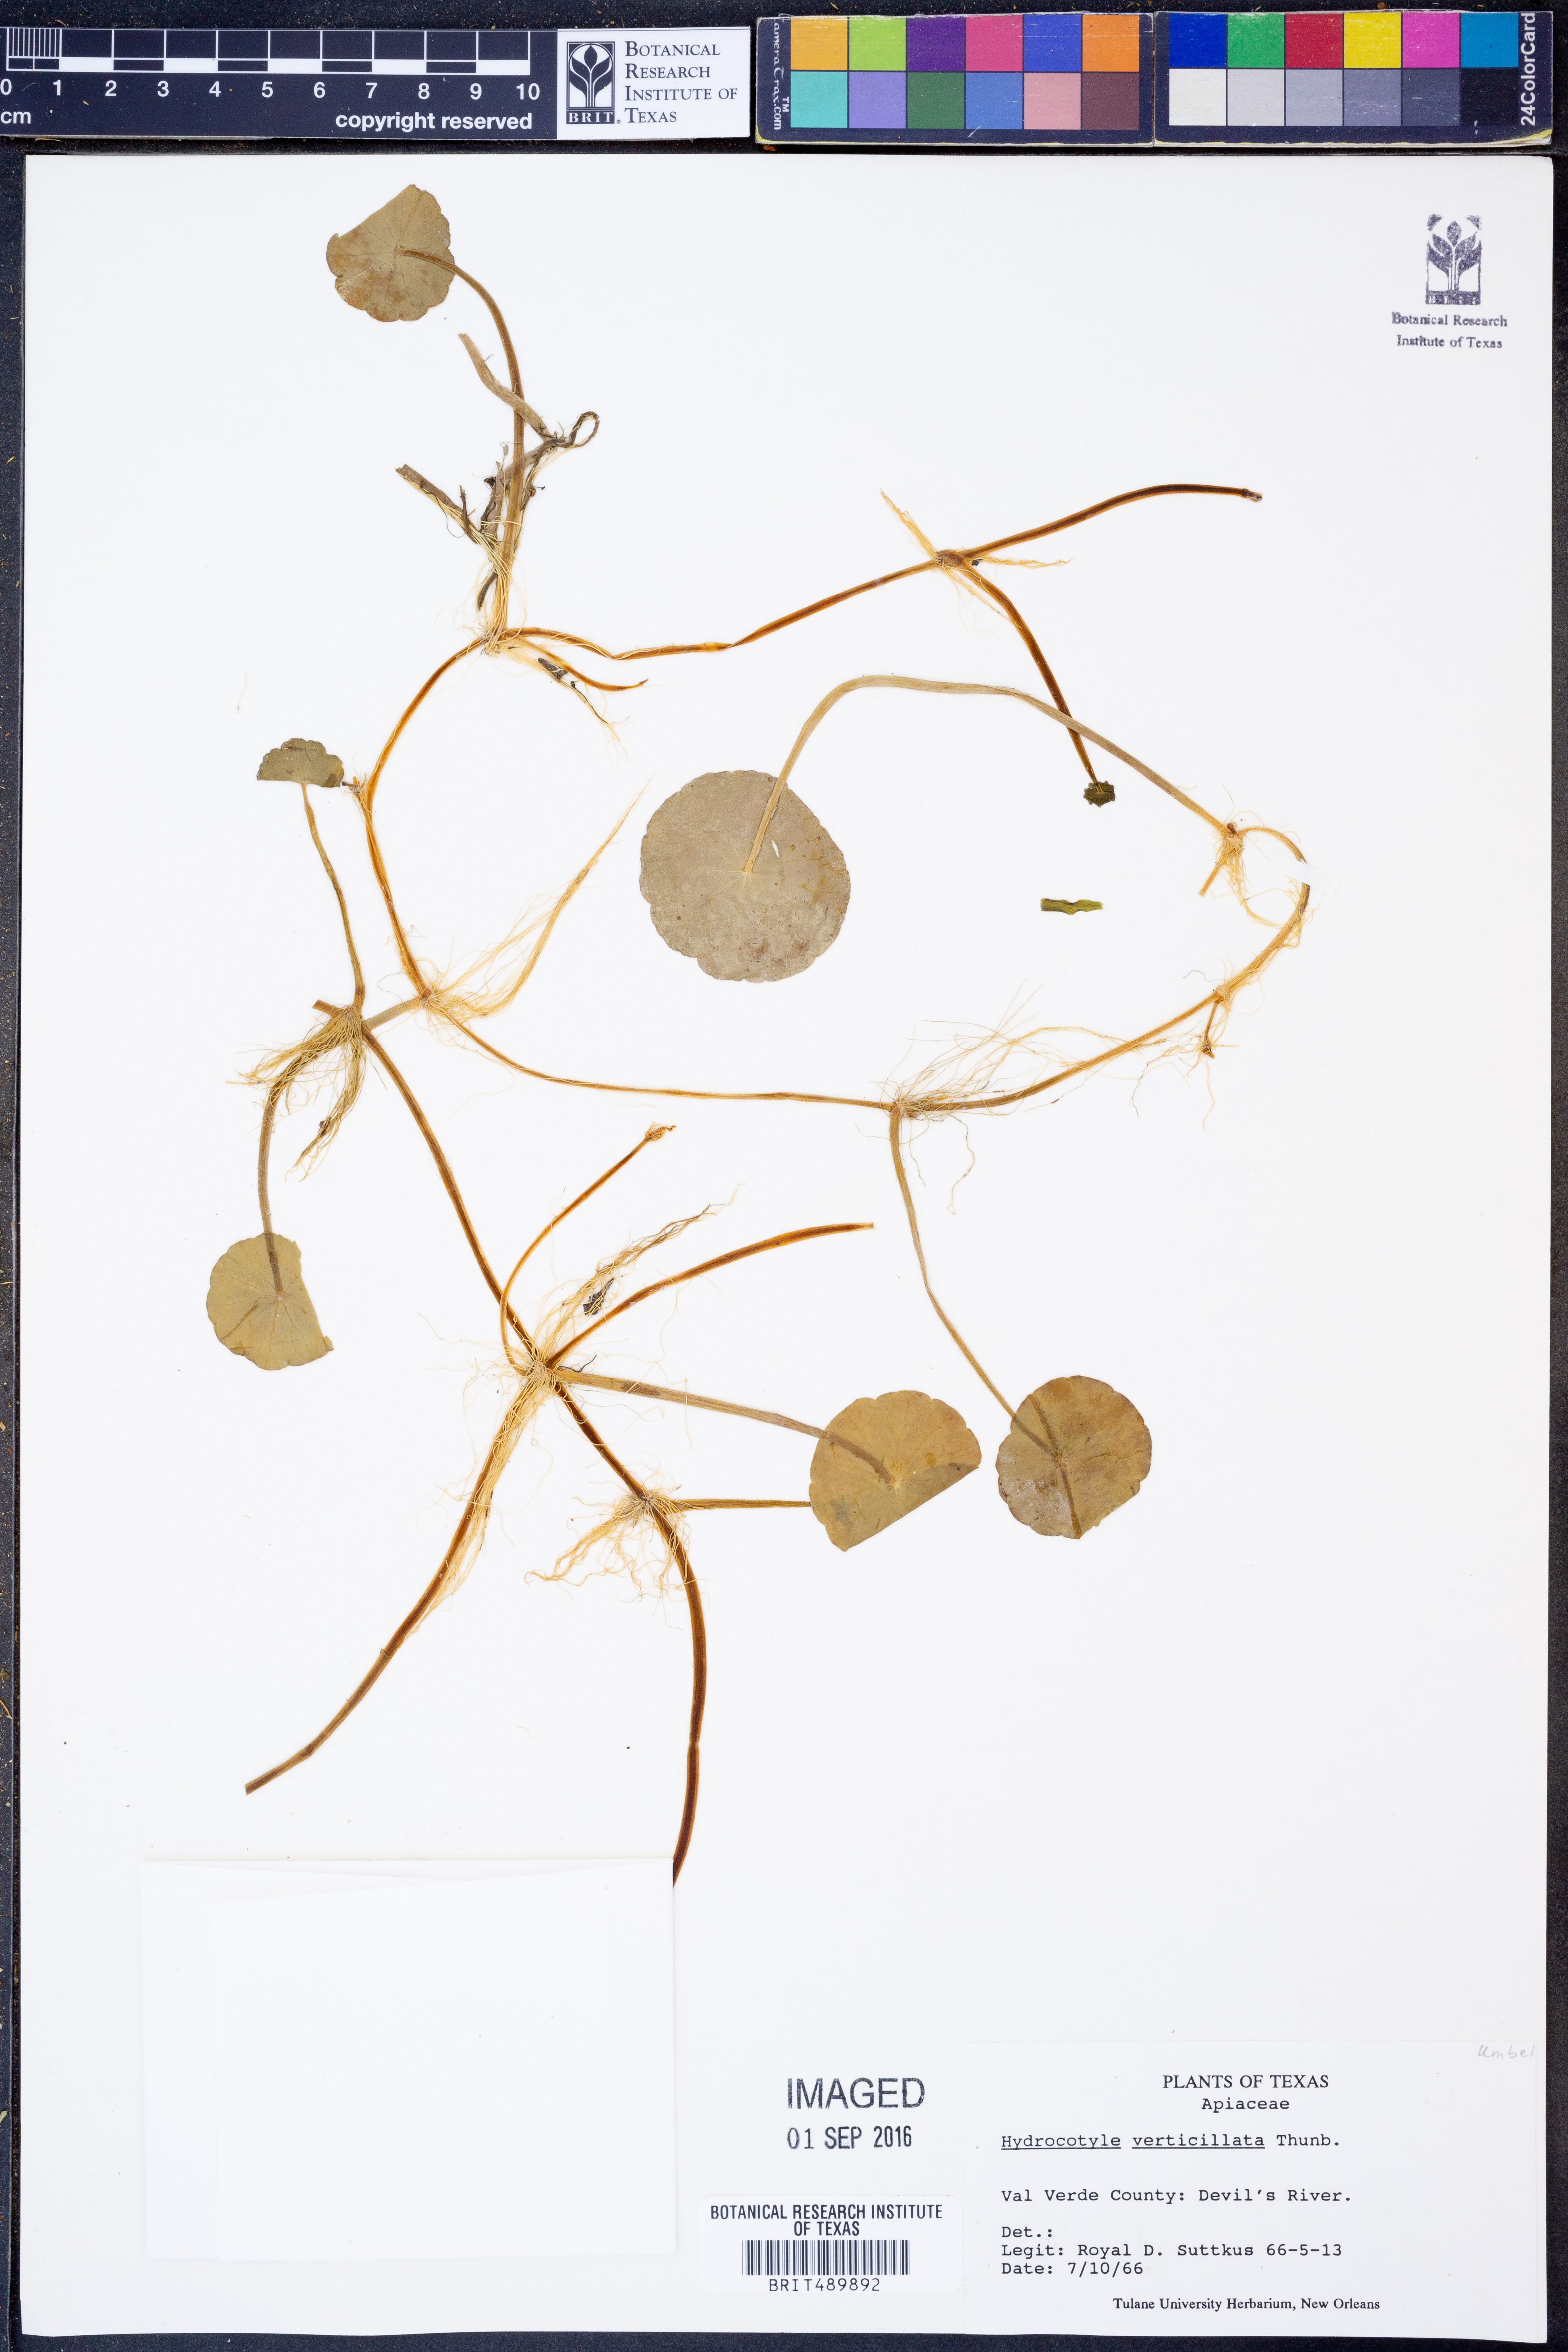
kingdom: Plantae
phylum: Tracheophyta
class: Magnoliopsida
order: Apiales
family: Araliaceae
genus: Hydrocotyle
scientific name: Hydrocotyle verticillata
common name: Whorled marshpennywort
